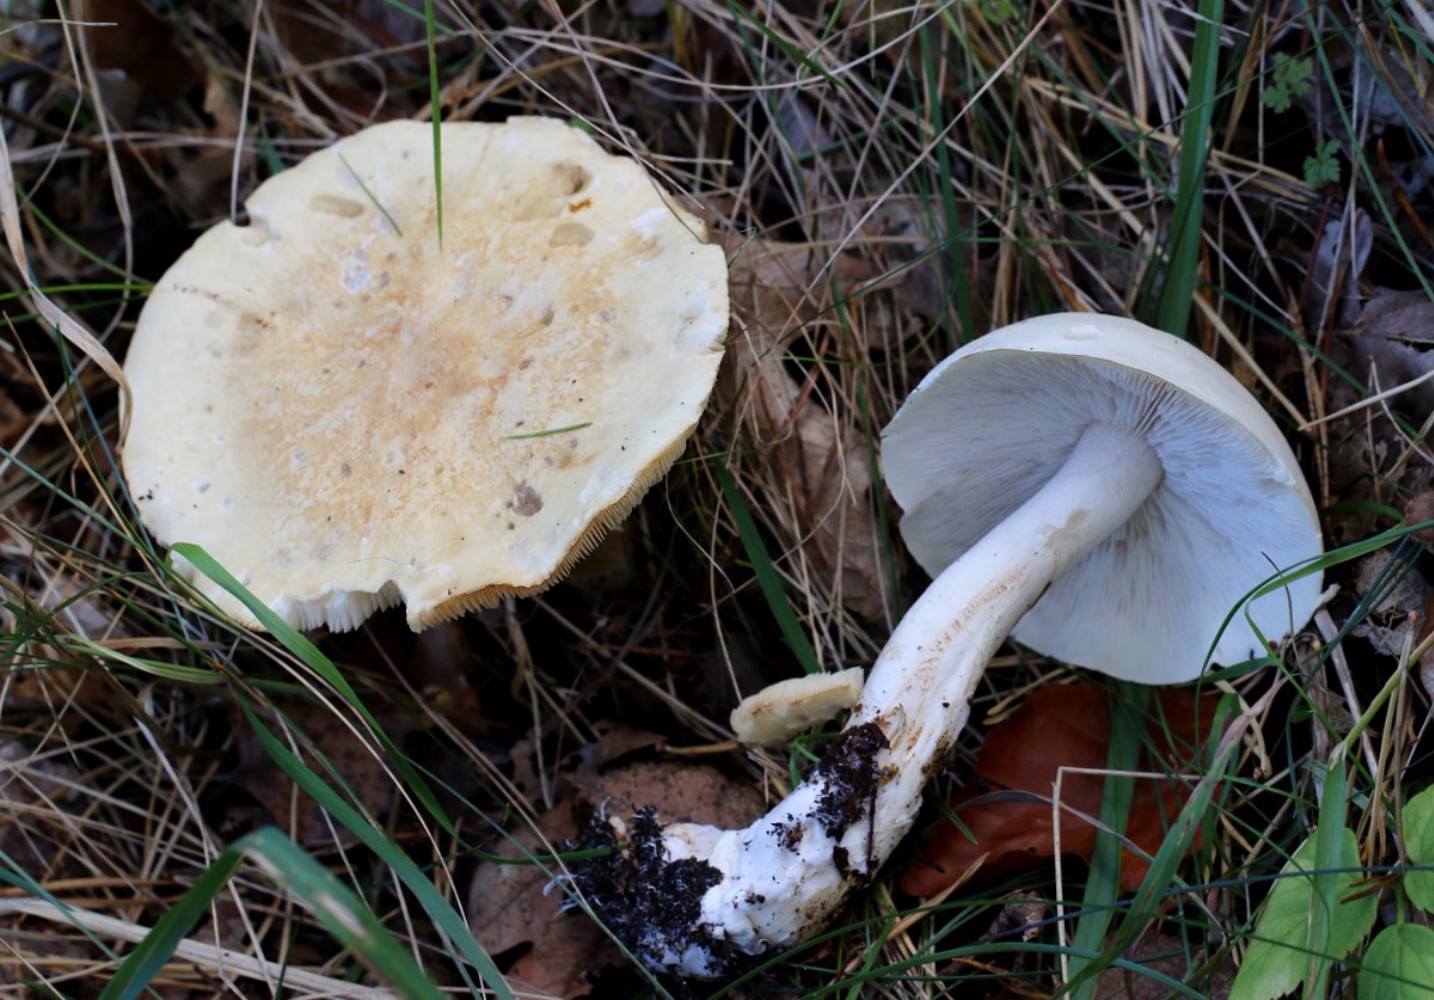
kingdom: Fungi
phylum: Basidiomycota
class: Agaricomycetes
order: Agaricales
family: Tricholomataceae
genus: Tricholoma
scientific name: Tricholoma stiparophyllum
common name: hvid ridderhat
